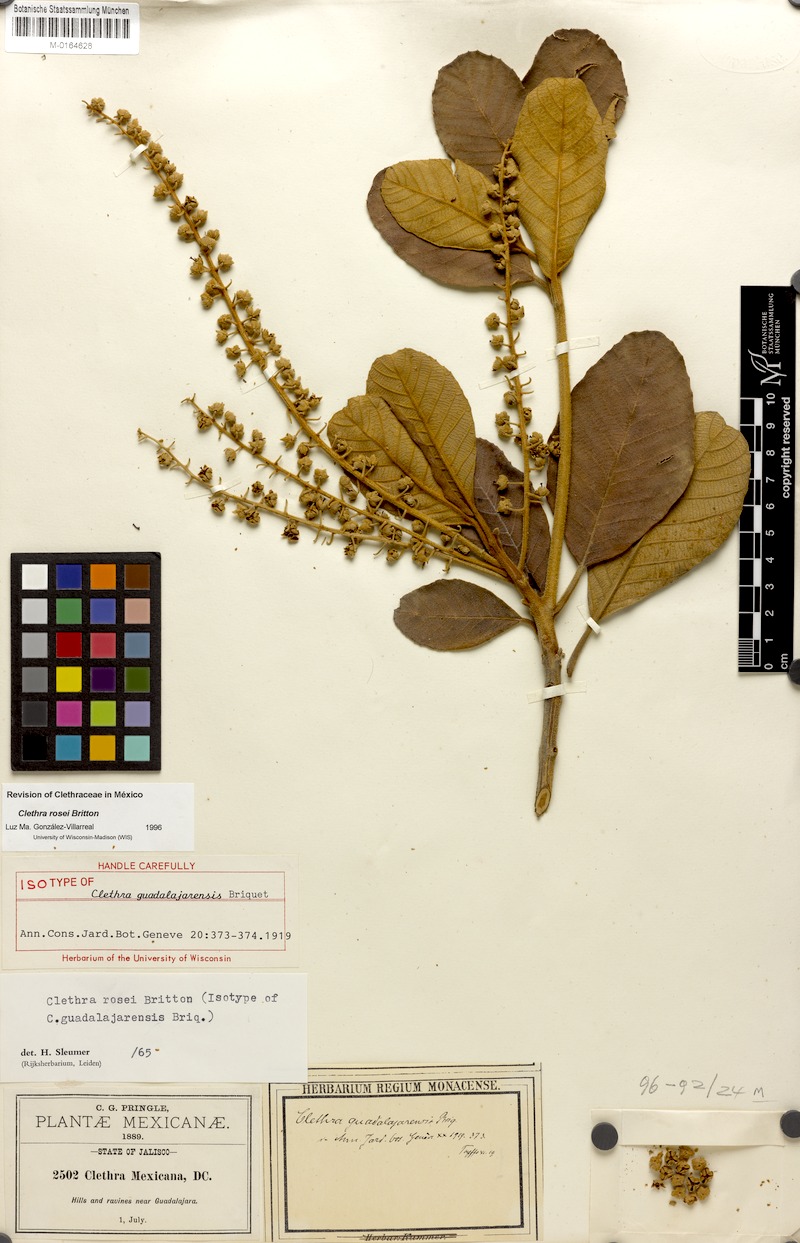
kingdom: Plantae
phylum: Tracheophyta
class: Magnoliopsida
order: Ericales
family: Clethraceae
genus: Clethra
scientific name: Clethra rosei
